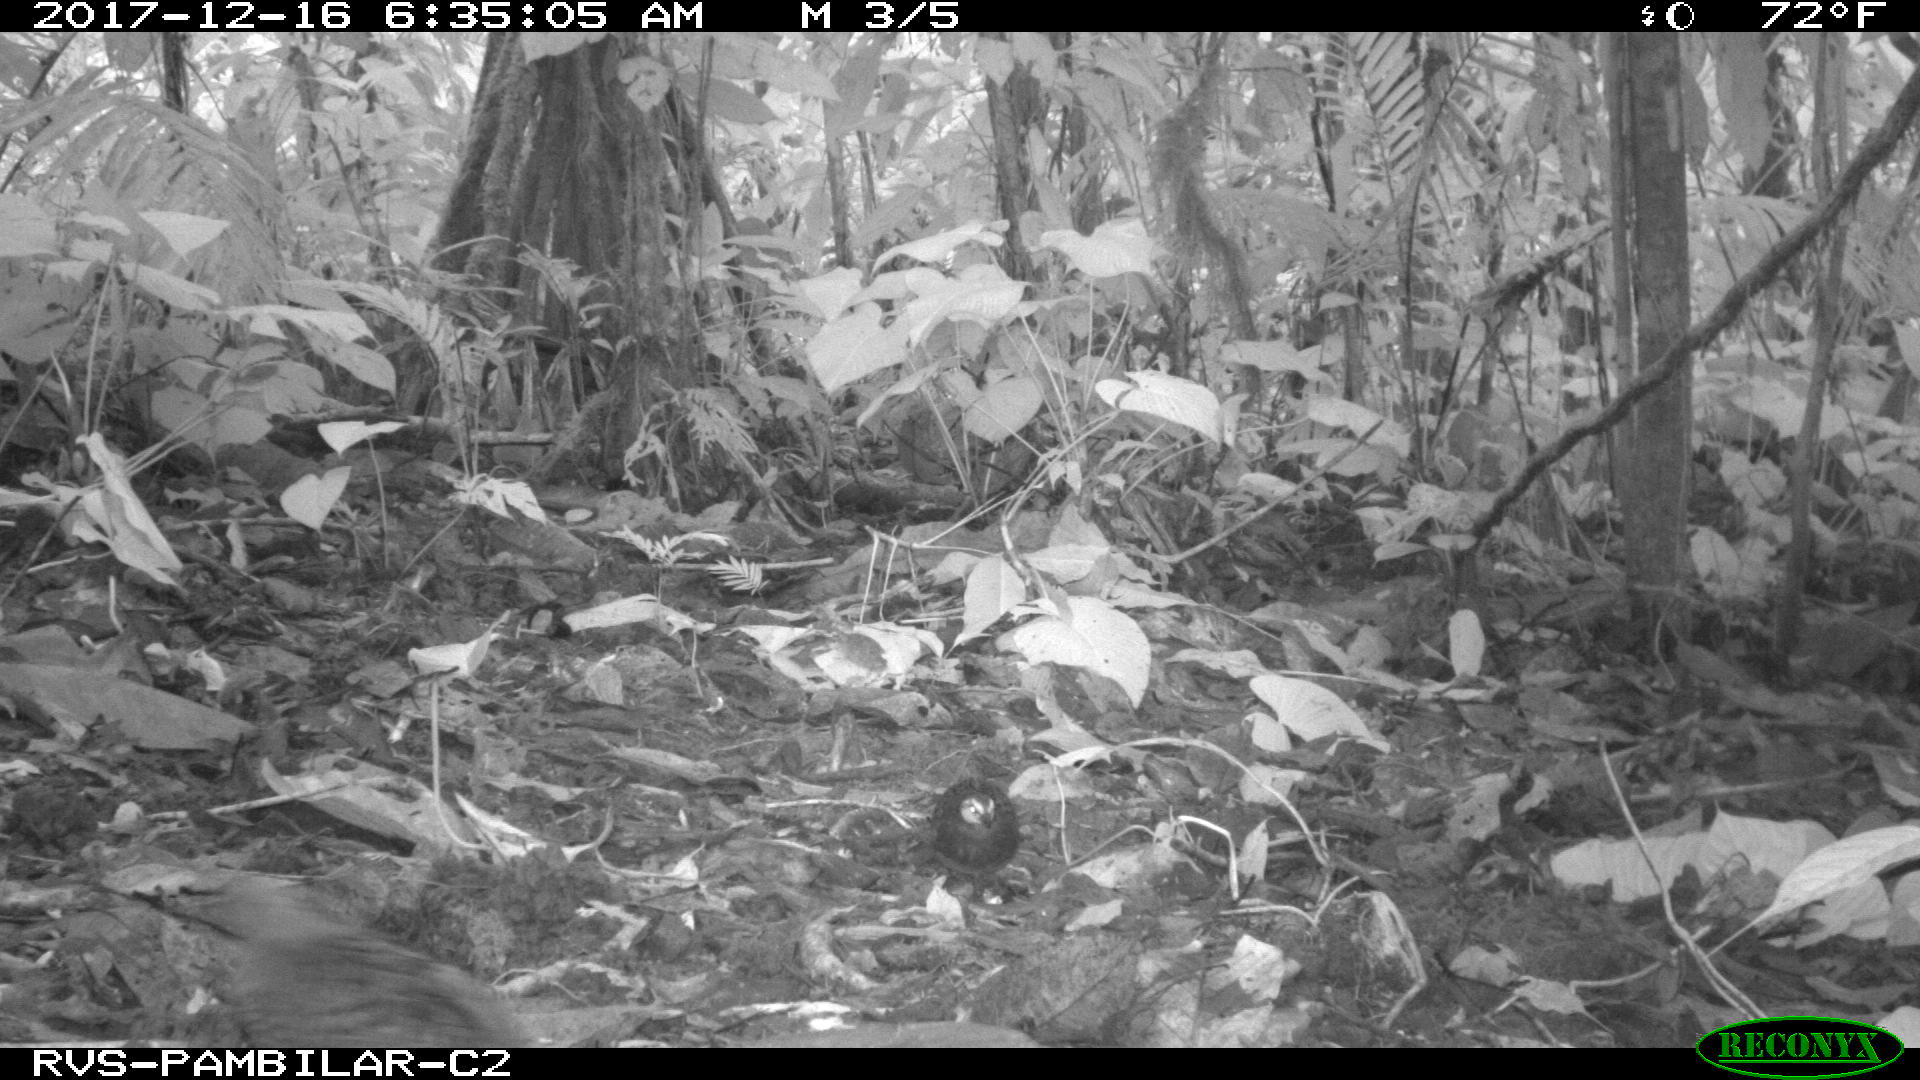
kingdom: Animalia
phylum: Chordata
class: Aves
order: Columbiformes
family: Columbidae
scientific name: Columbidae
